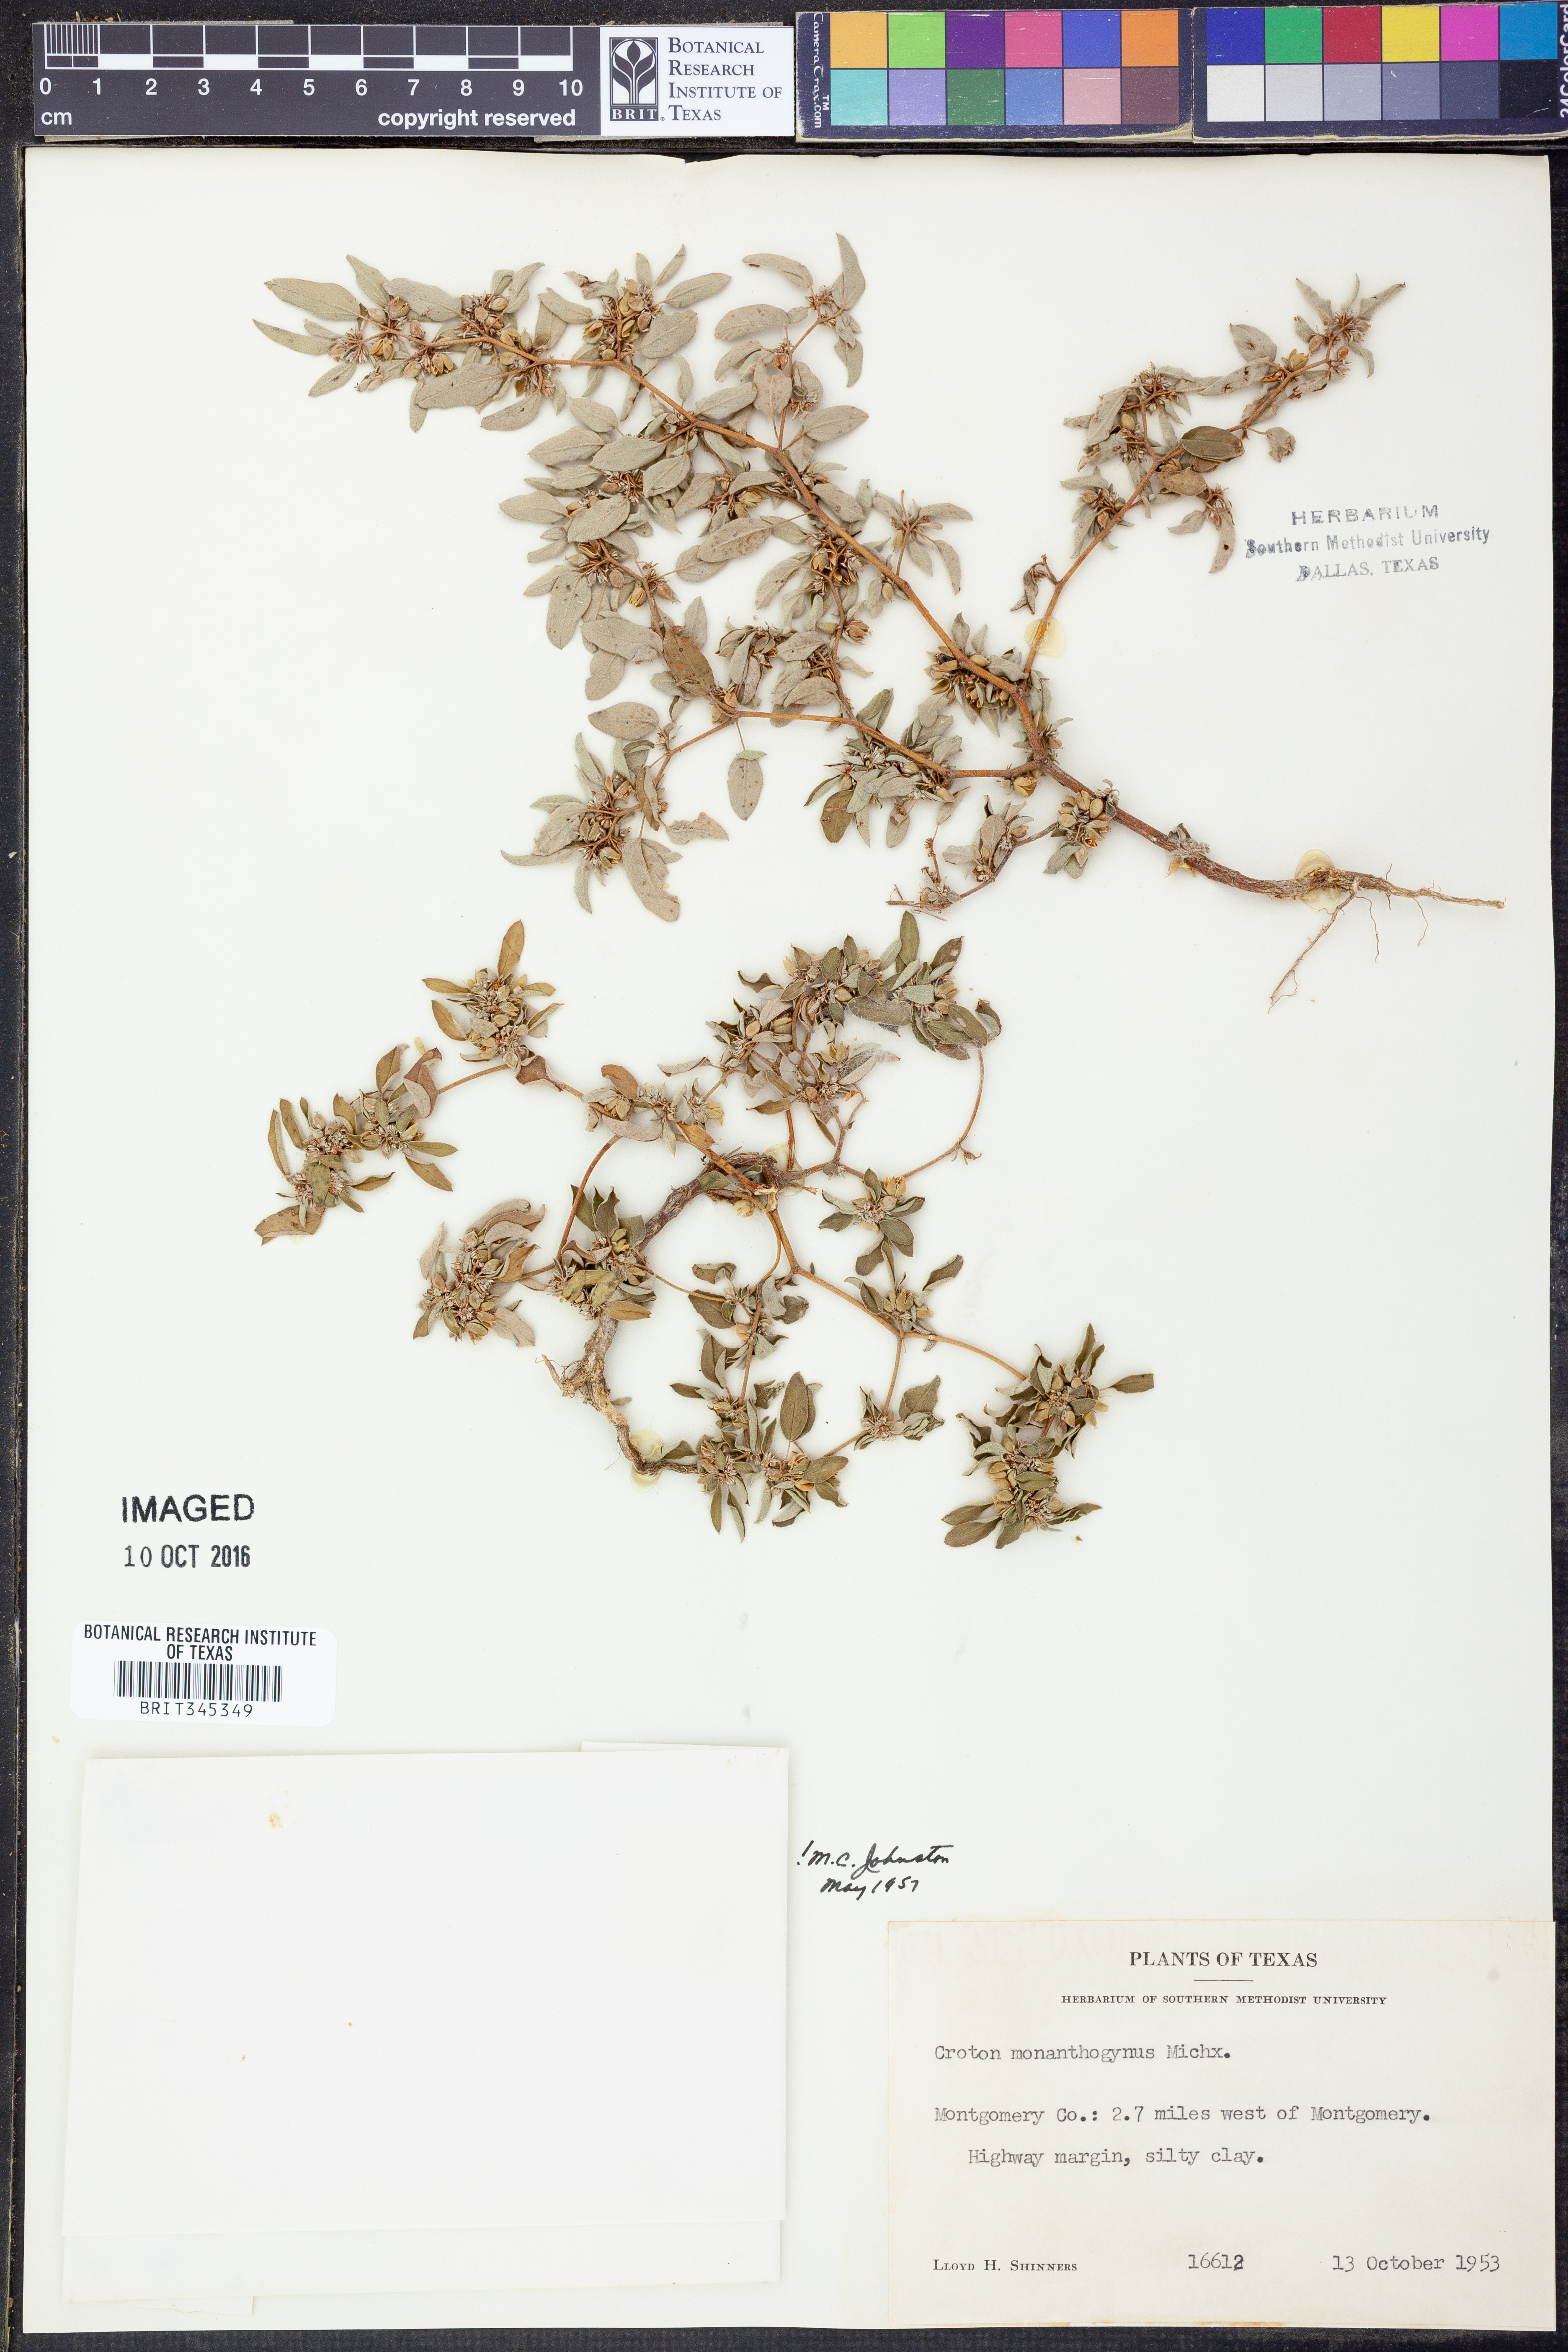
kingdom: Plantae
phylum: Tracheophyta
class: Magnoliopsida
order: Malpighiales
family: Euphorbiaceae
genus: Croton
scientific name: Croton monanthogynus
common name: One-seed croton
